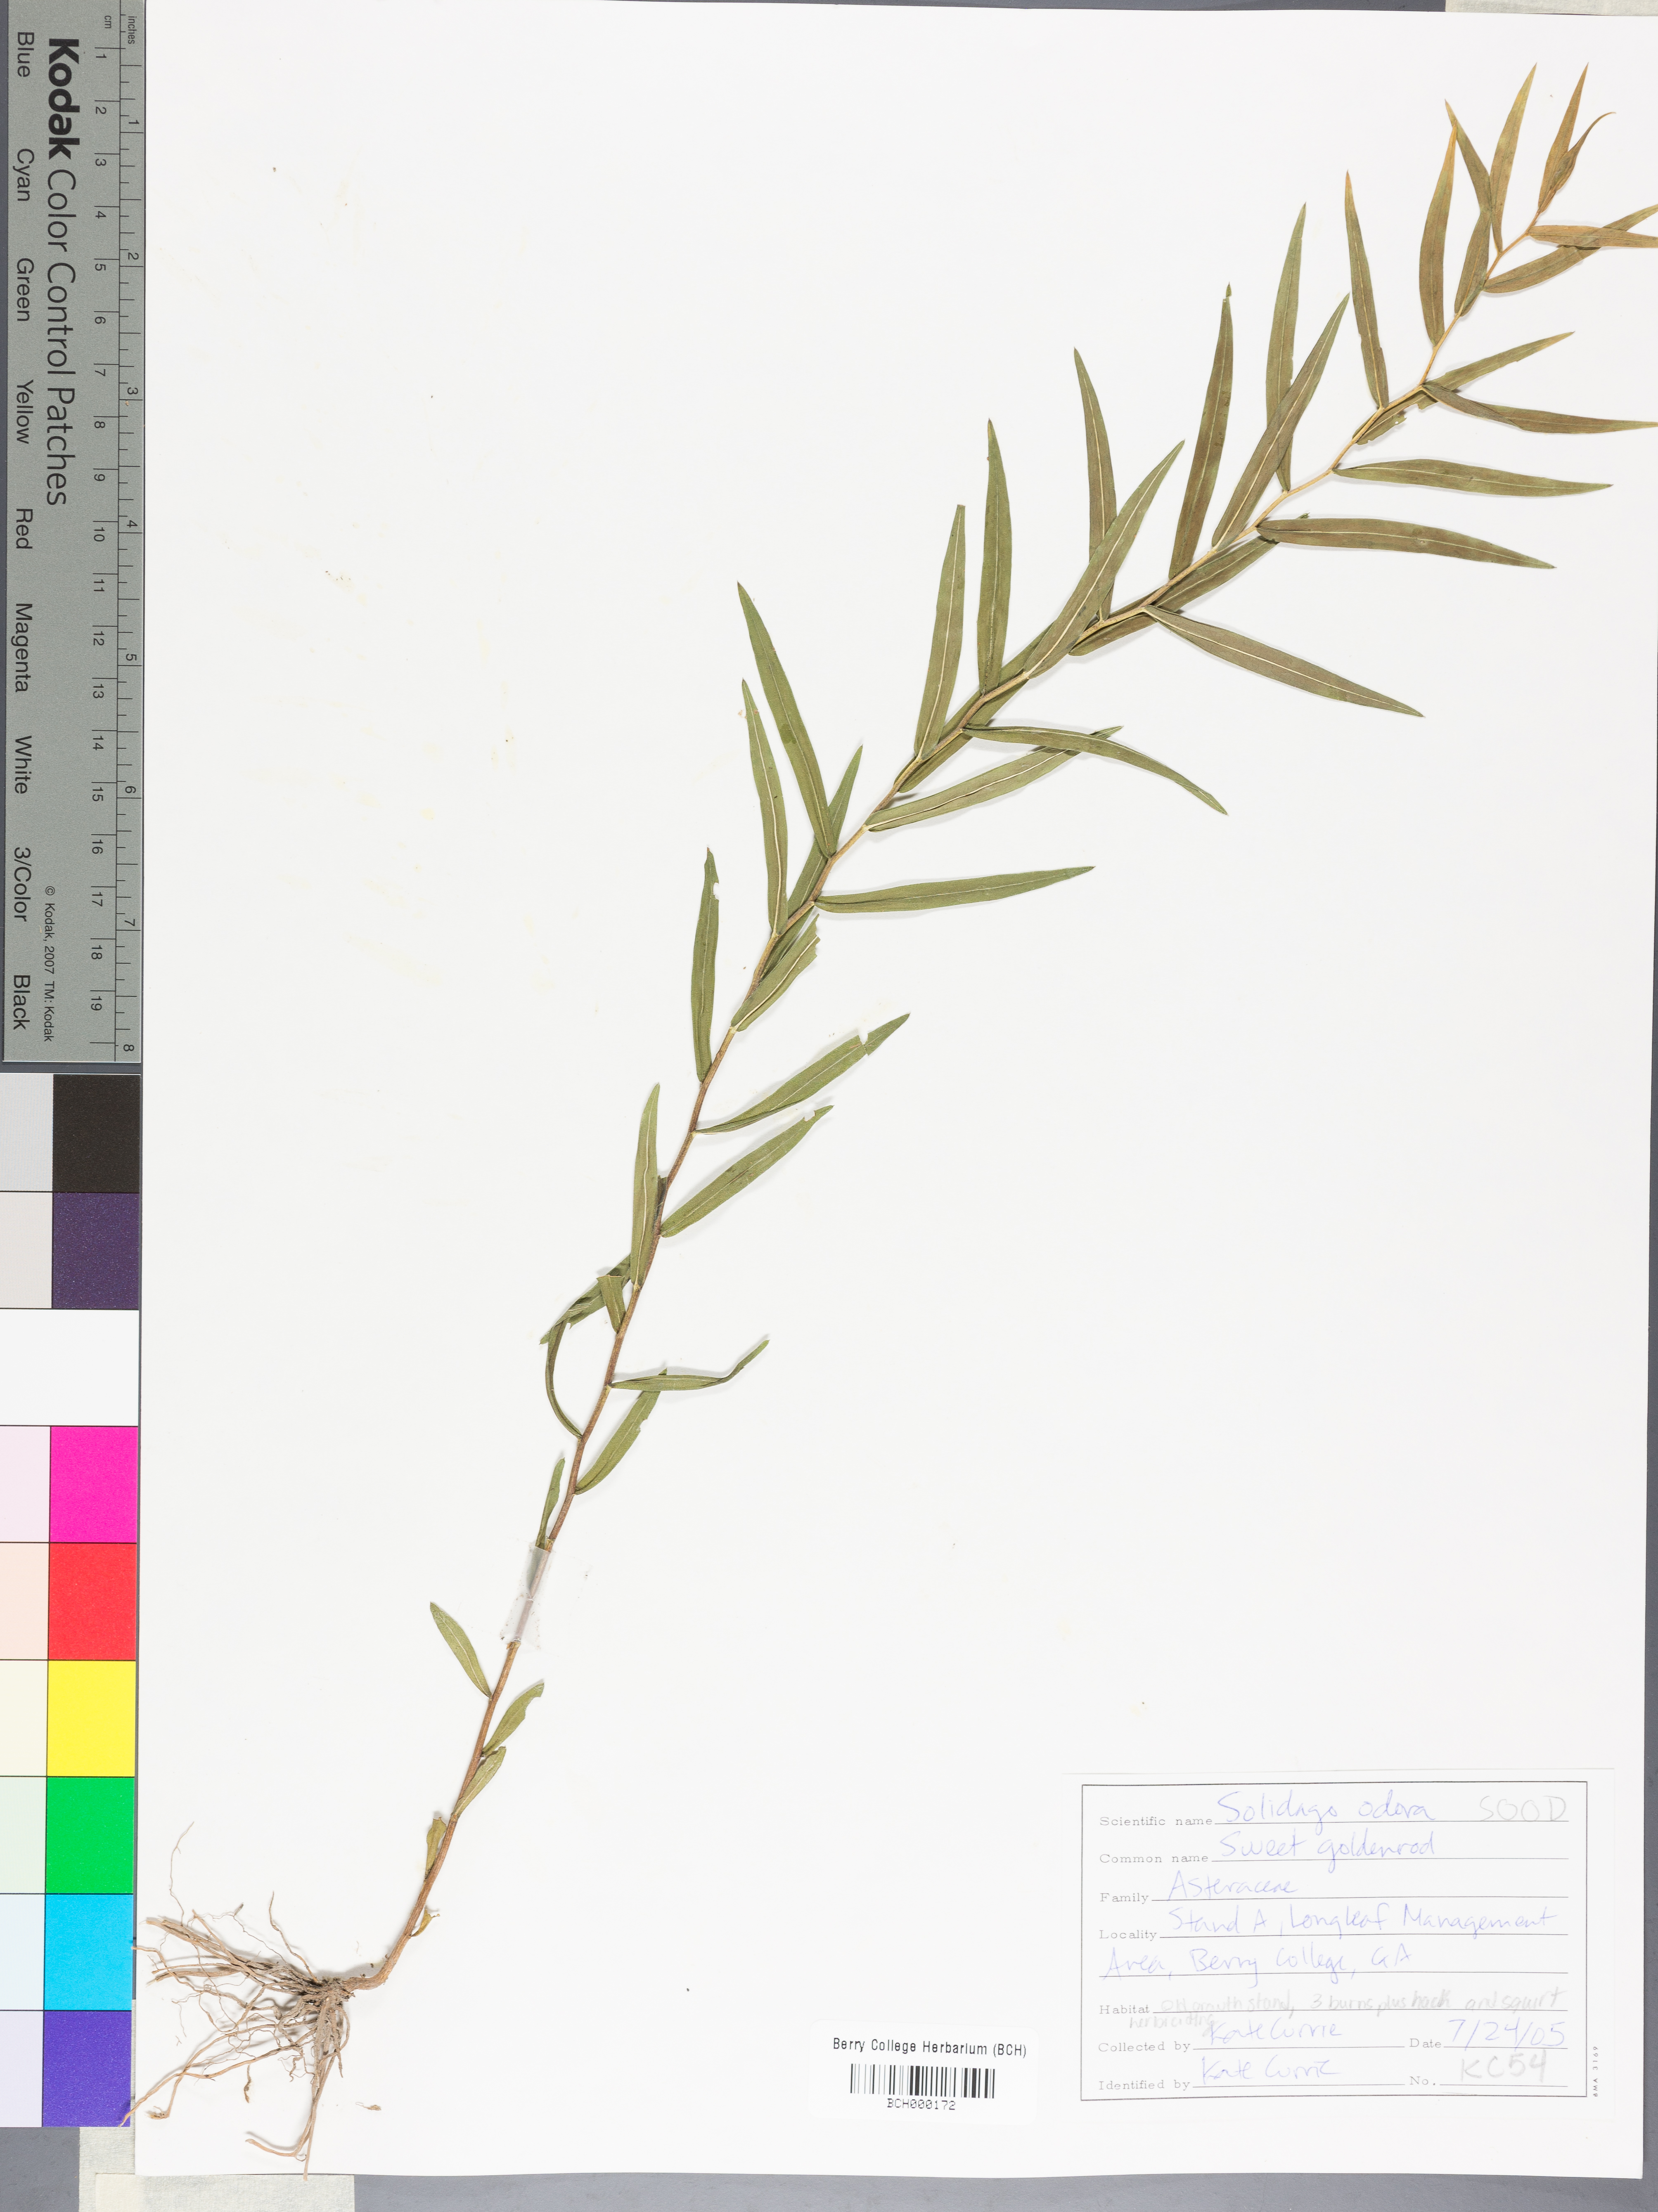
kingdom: Plantae
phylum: Tracheophyta
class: Magnoliopsida
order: Asterales
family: Asteraceae
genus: Solidago
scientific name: Solidago odora
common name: Anise-scented goldenrod
